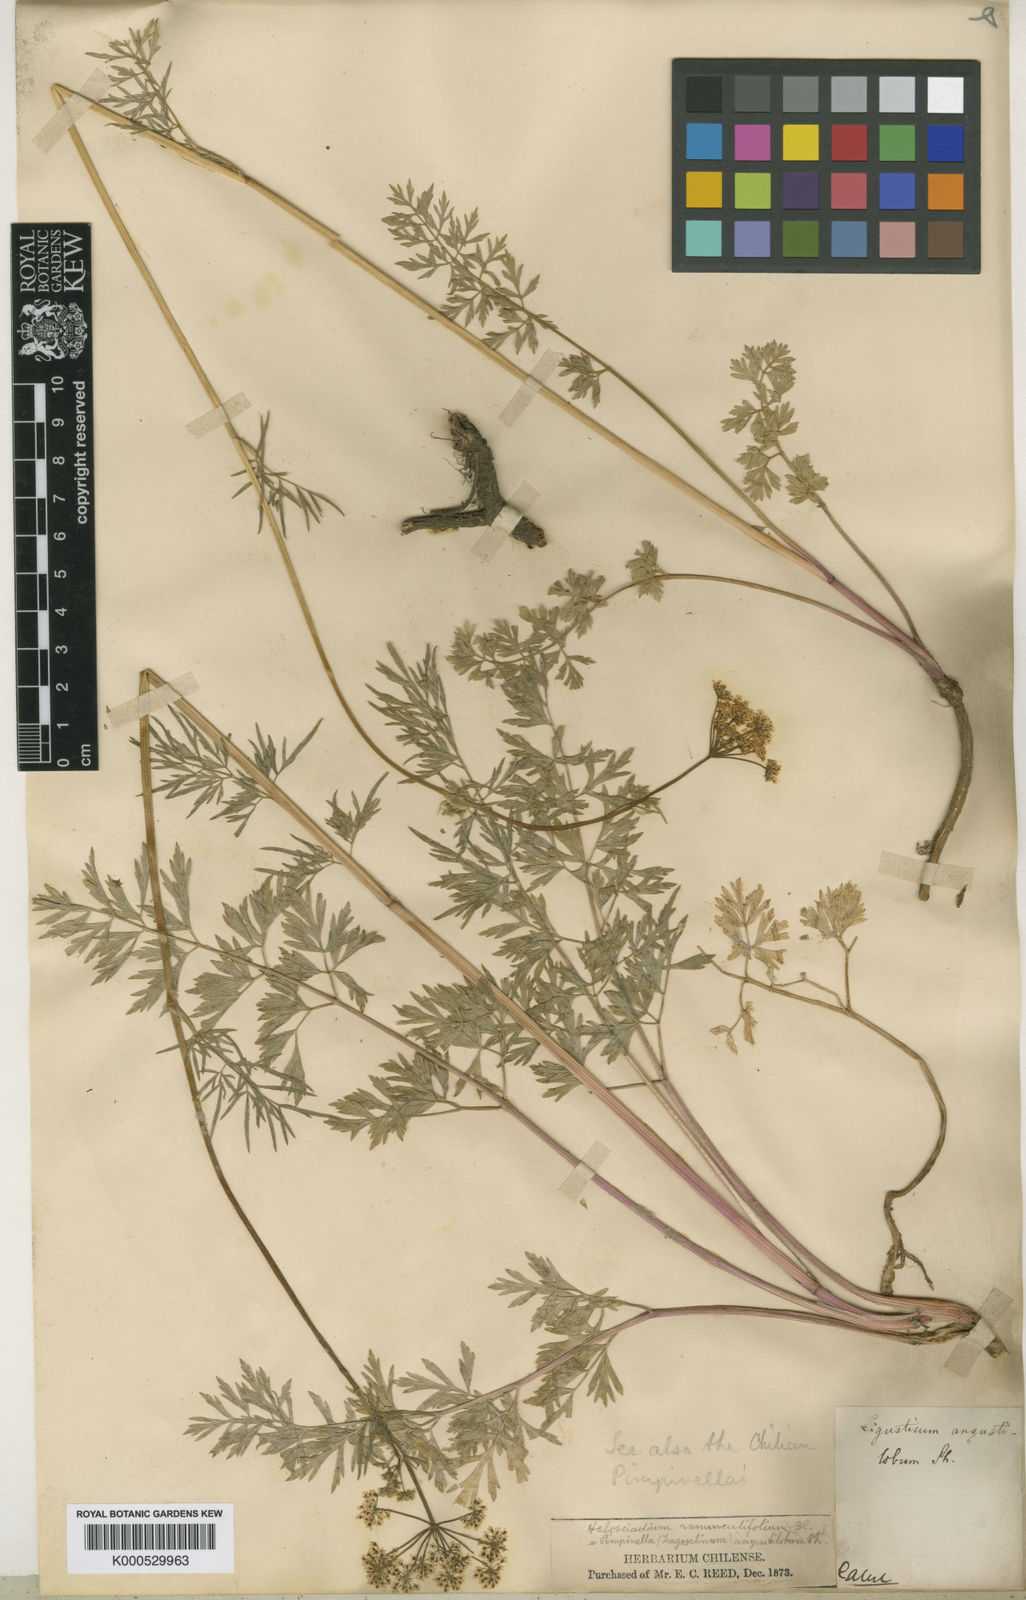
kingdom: Plantae
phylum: Tracheophyta
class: Magnoliopsida
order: Apiales
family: Apiaceae
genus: Niphogeton
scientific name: Niphogeton ternata
